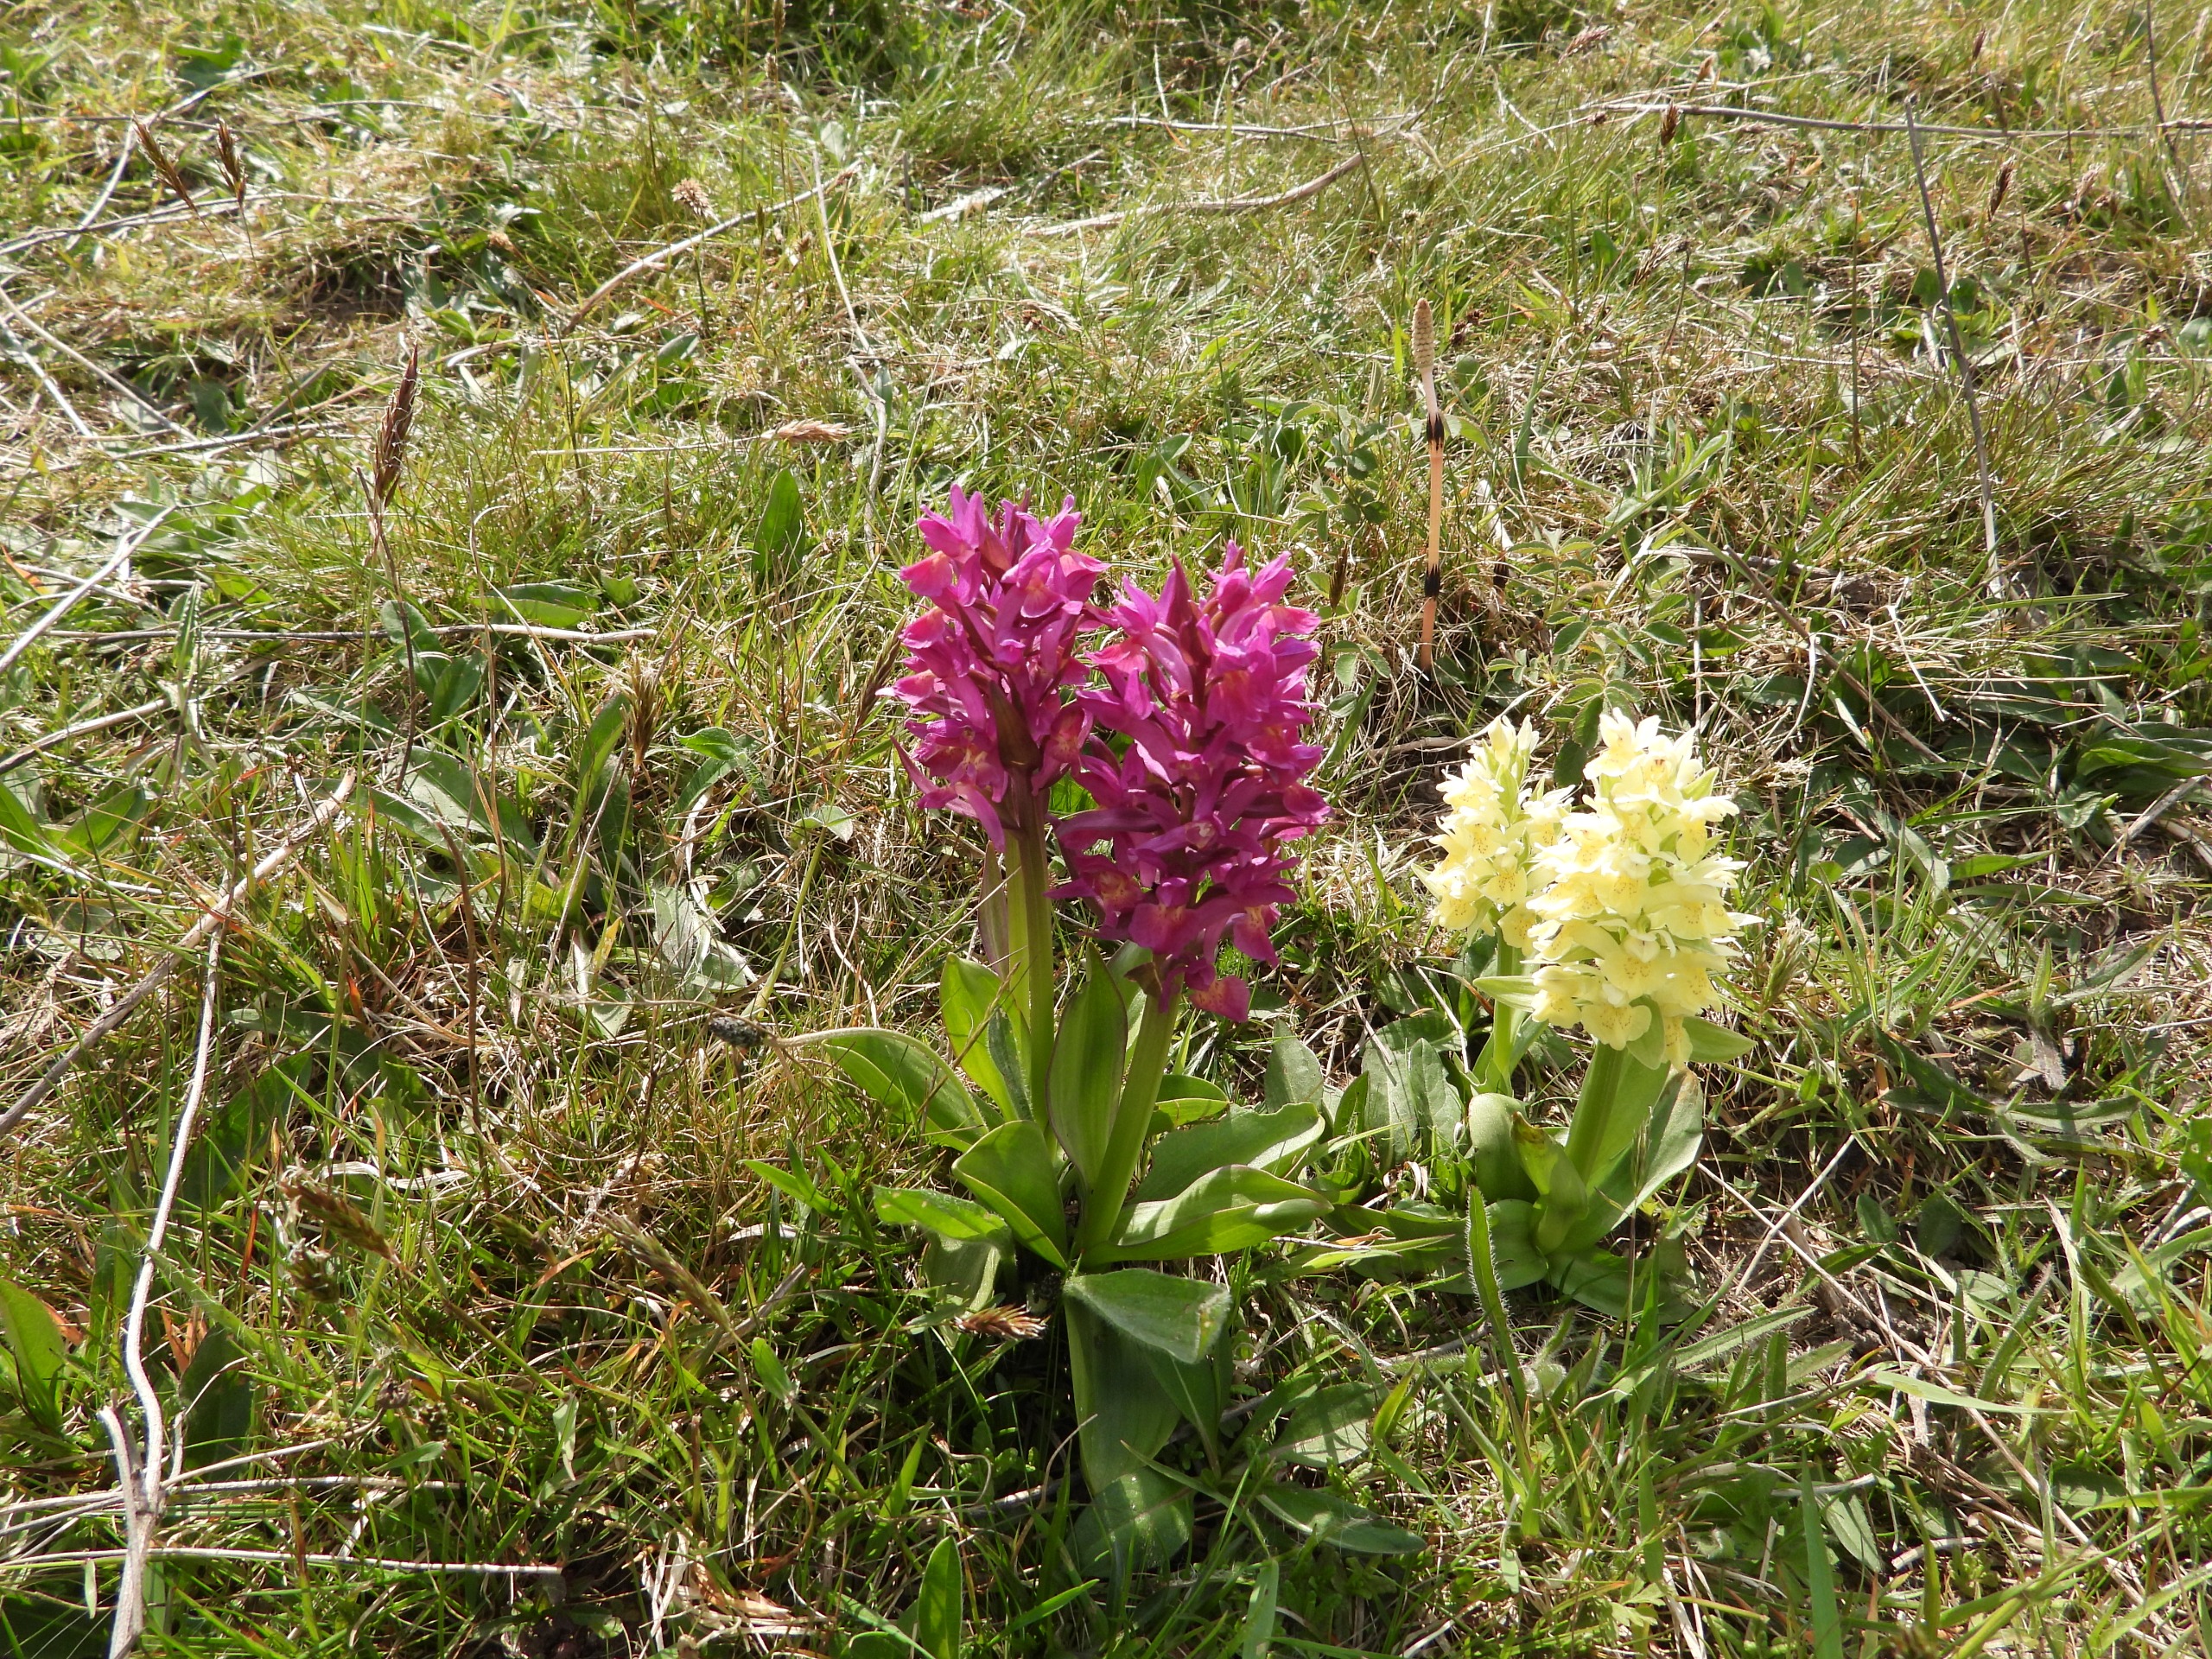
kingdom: Plantae
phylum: Tracheophyta
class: Liliopsida
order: Asparagales
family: Orchidaceae
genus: Dactylorhiza
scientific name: Dactylorhiza sambucina
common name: Hylde-gøgeurt
